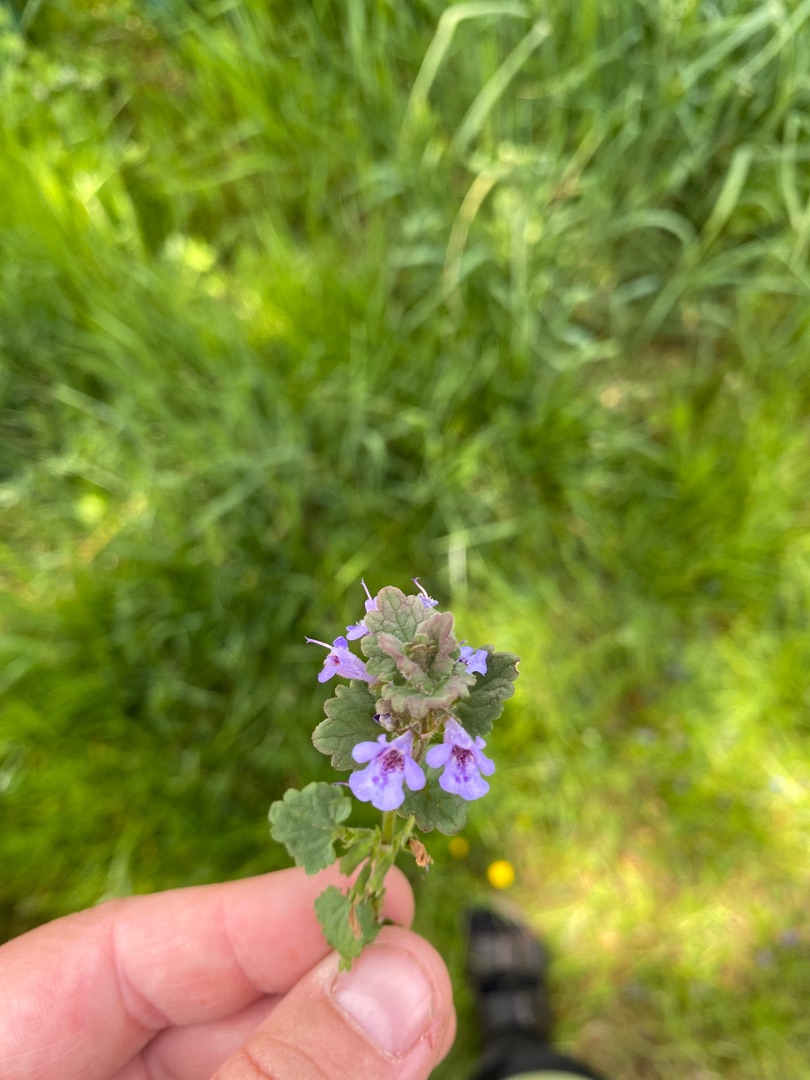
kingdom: Plantae
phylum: Tracheophyta
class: Magnoliopsida
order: Lamiales
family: Lamiaceae
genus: Glechoma
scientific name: Glechoma hederacea
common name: Korsknap
